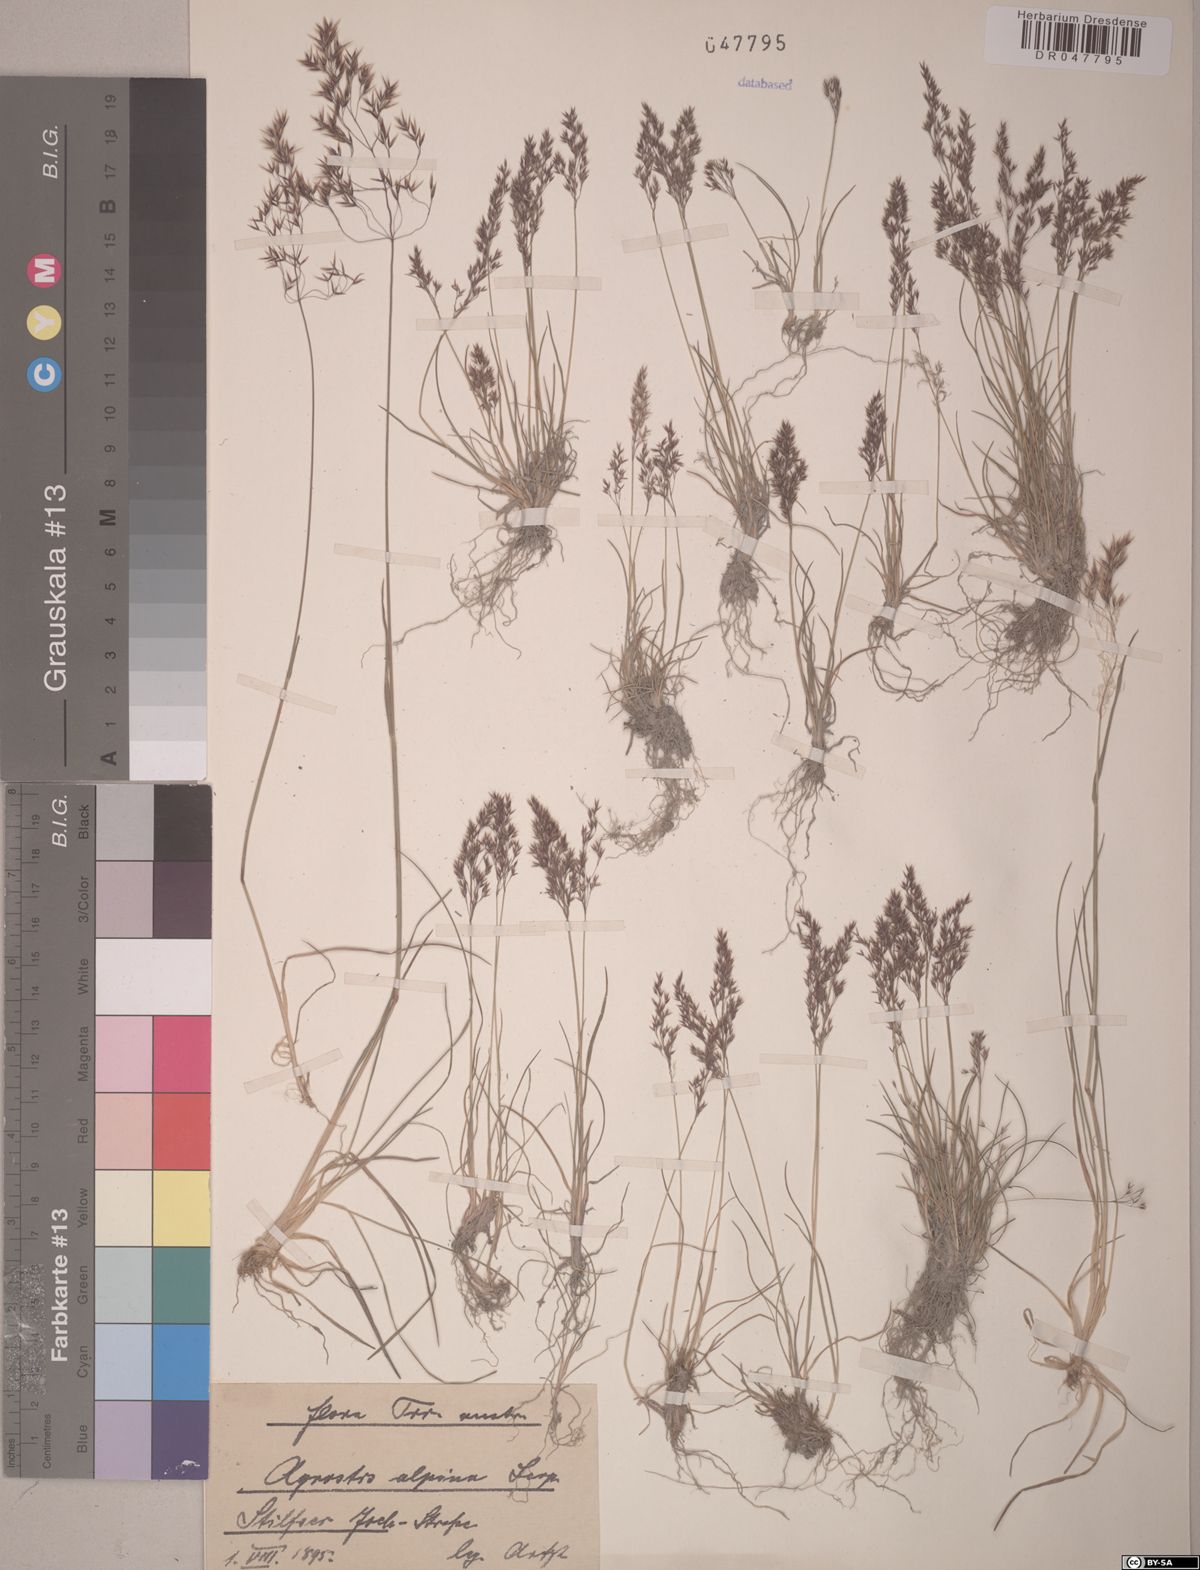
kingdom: Plantae
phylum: Tracheophyta
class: Liliopsida
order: Poales
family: Poaceae
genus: Alpagrostis
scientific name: Alpagrostis alpina
